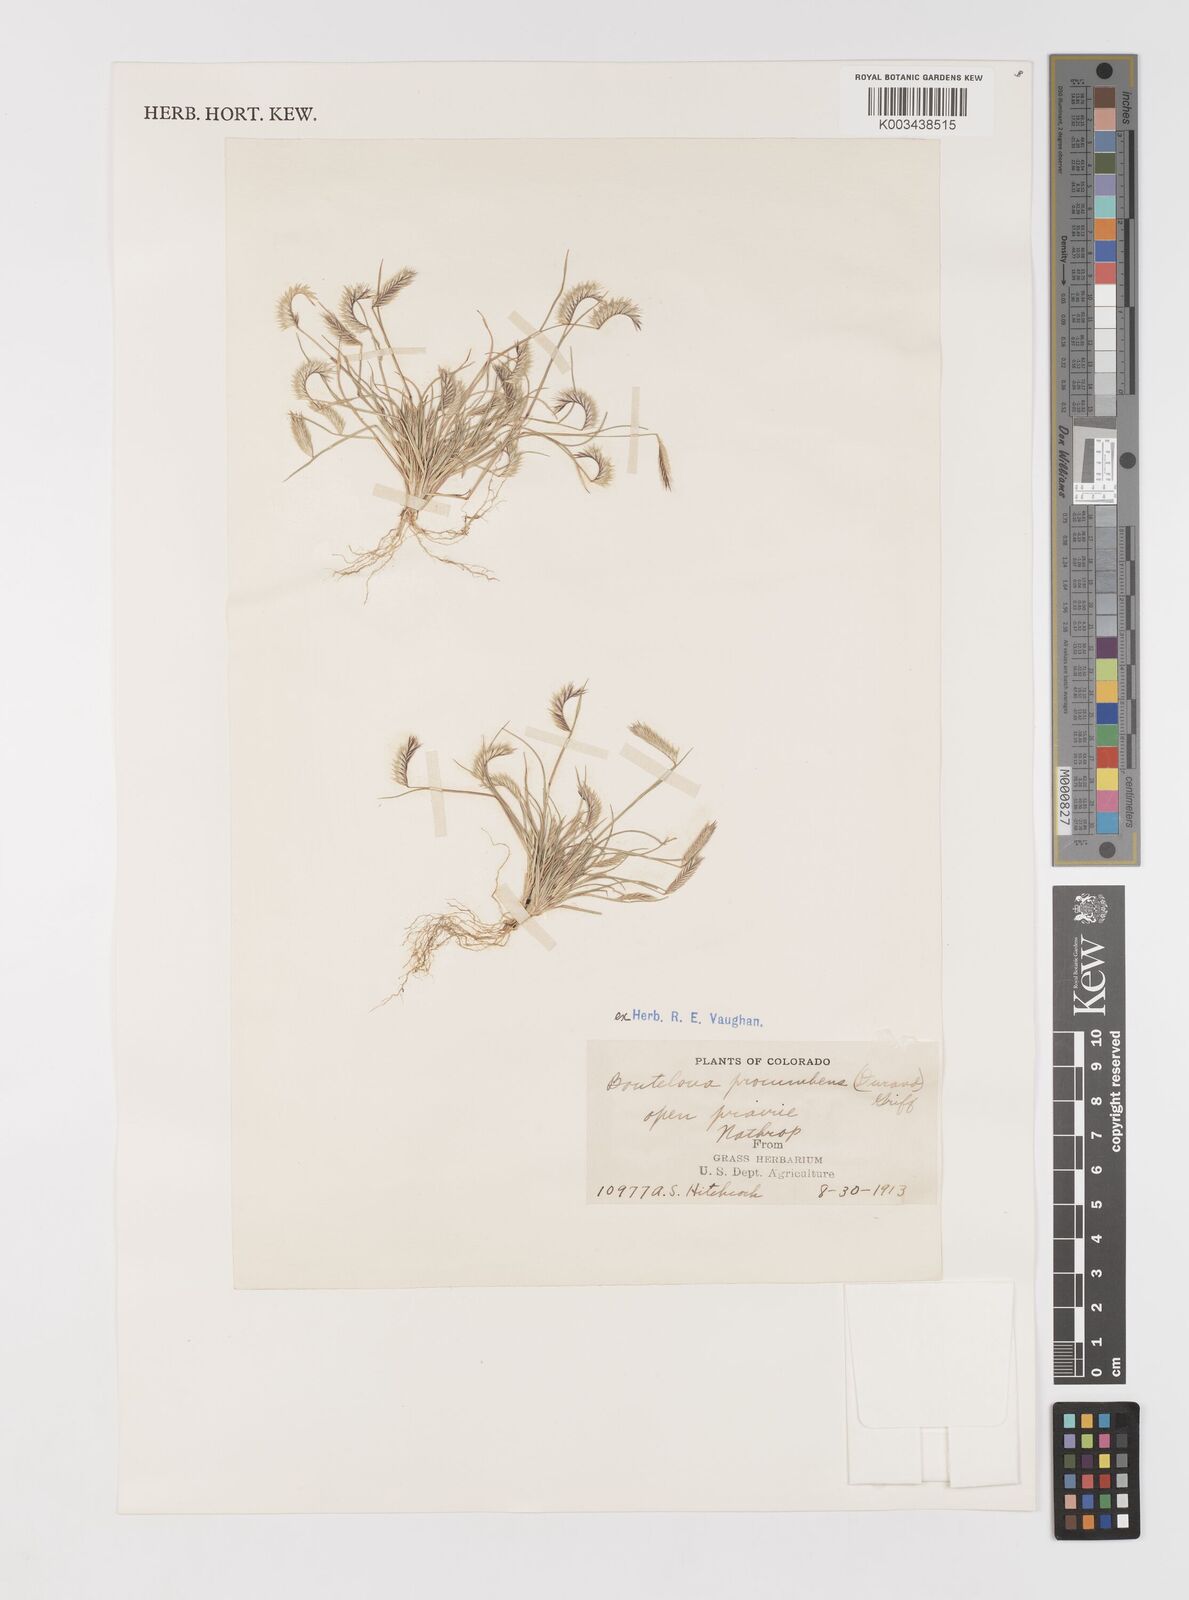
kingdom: Plantae
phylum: Tracheophyta
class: Liliopsida
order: Poales
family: Poaceae
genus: Bouteloua
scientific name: Bouteloua simplex
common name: Mat grama
